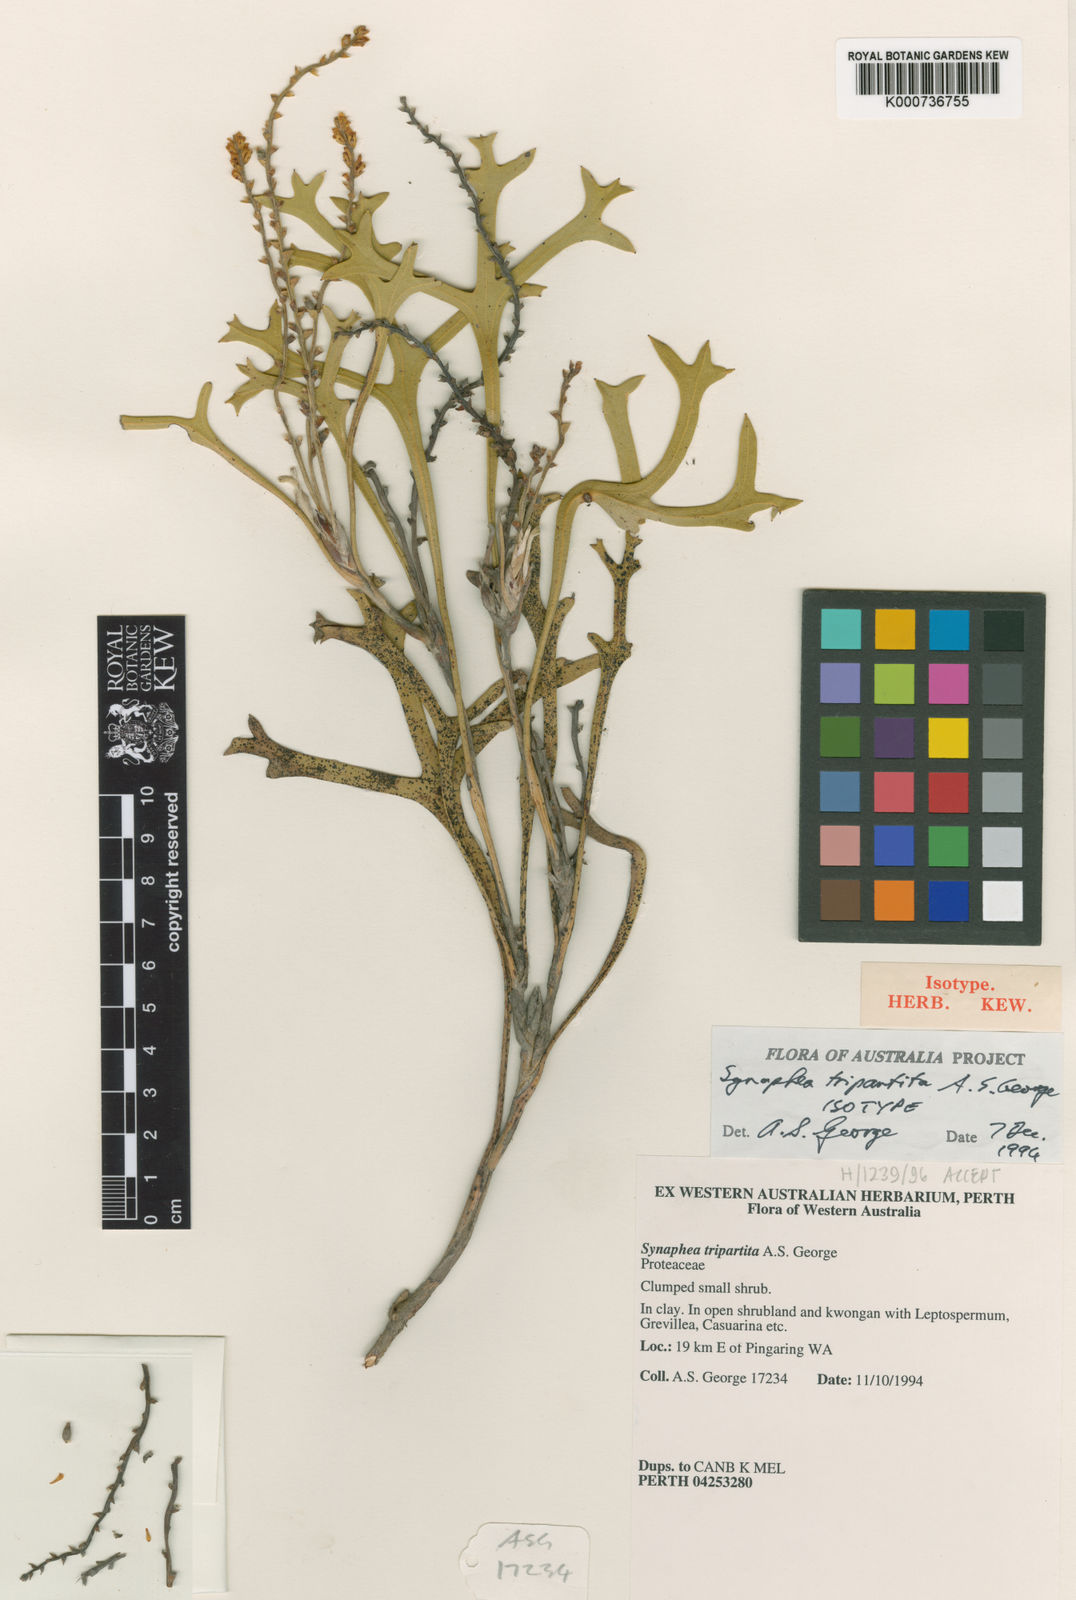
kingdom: Plantae
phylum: Tracheophyta
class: Magnoliopsida
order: Proteales
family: Proteaceae
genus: Synaphea
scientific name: Synaphea tripartita
